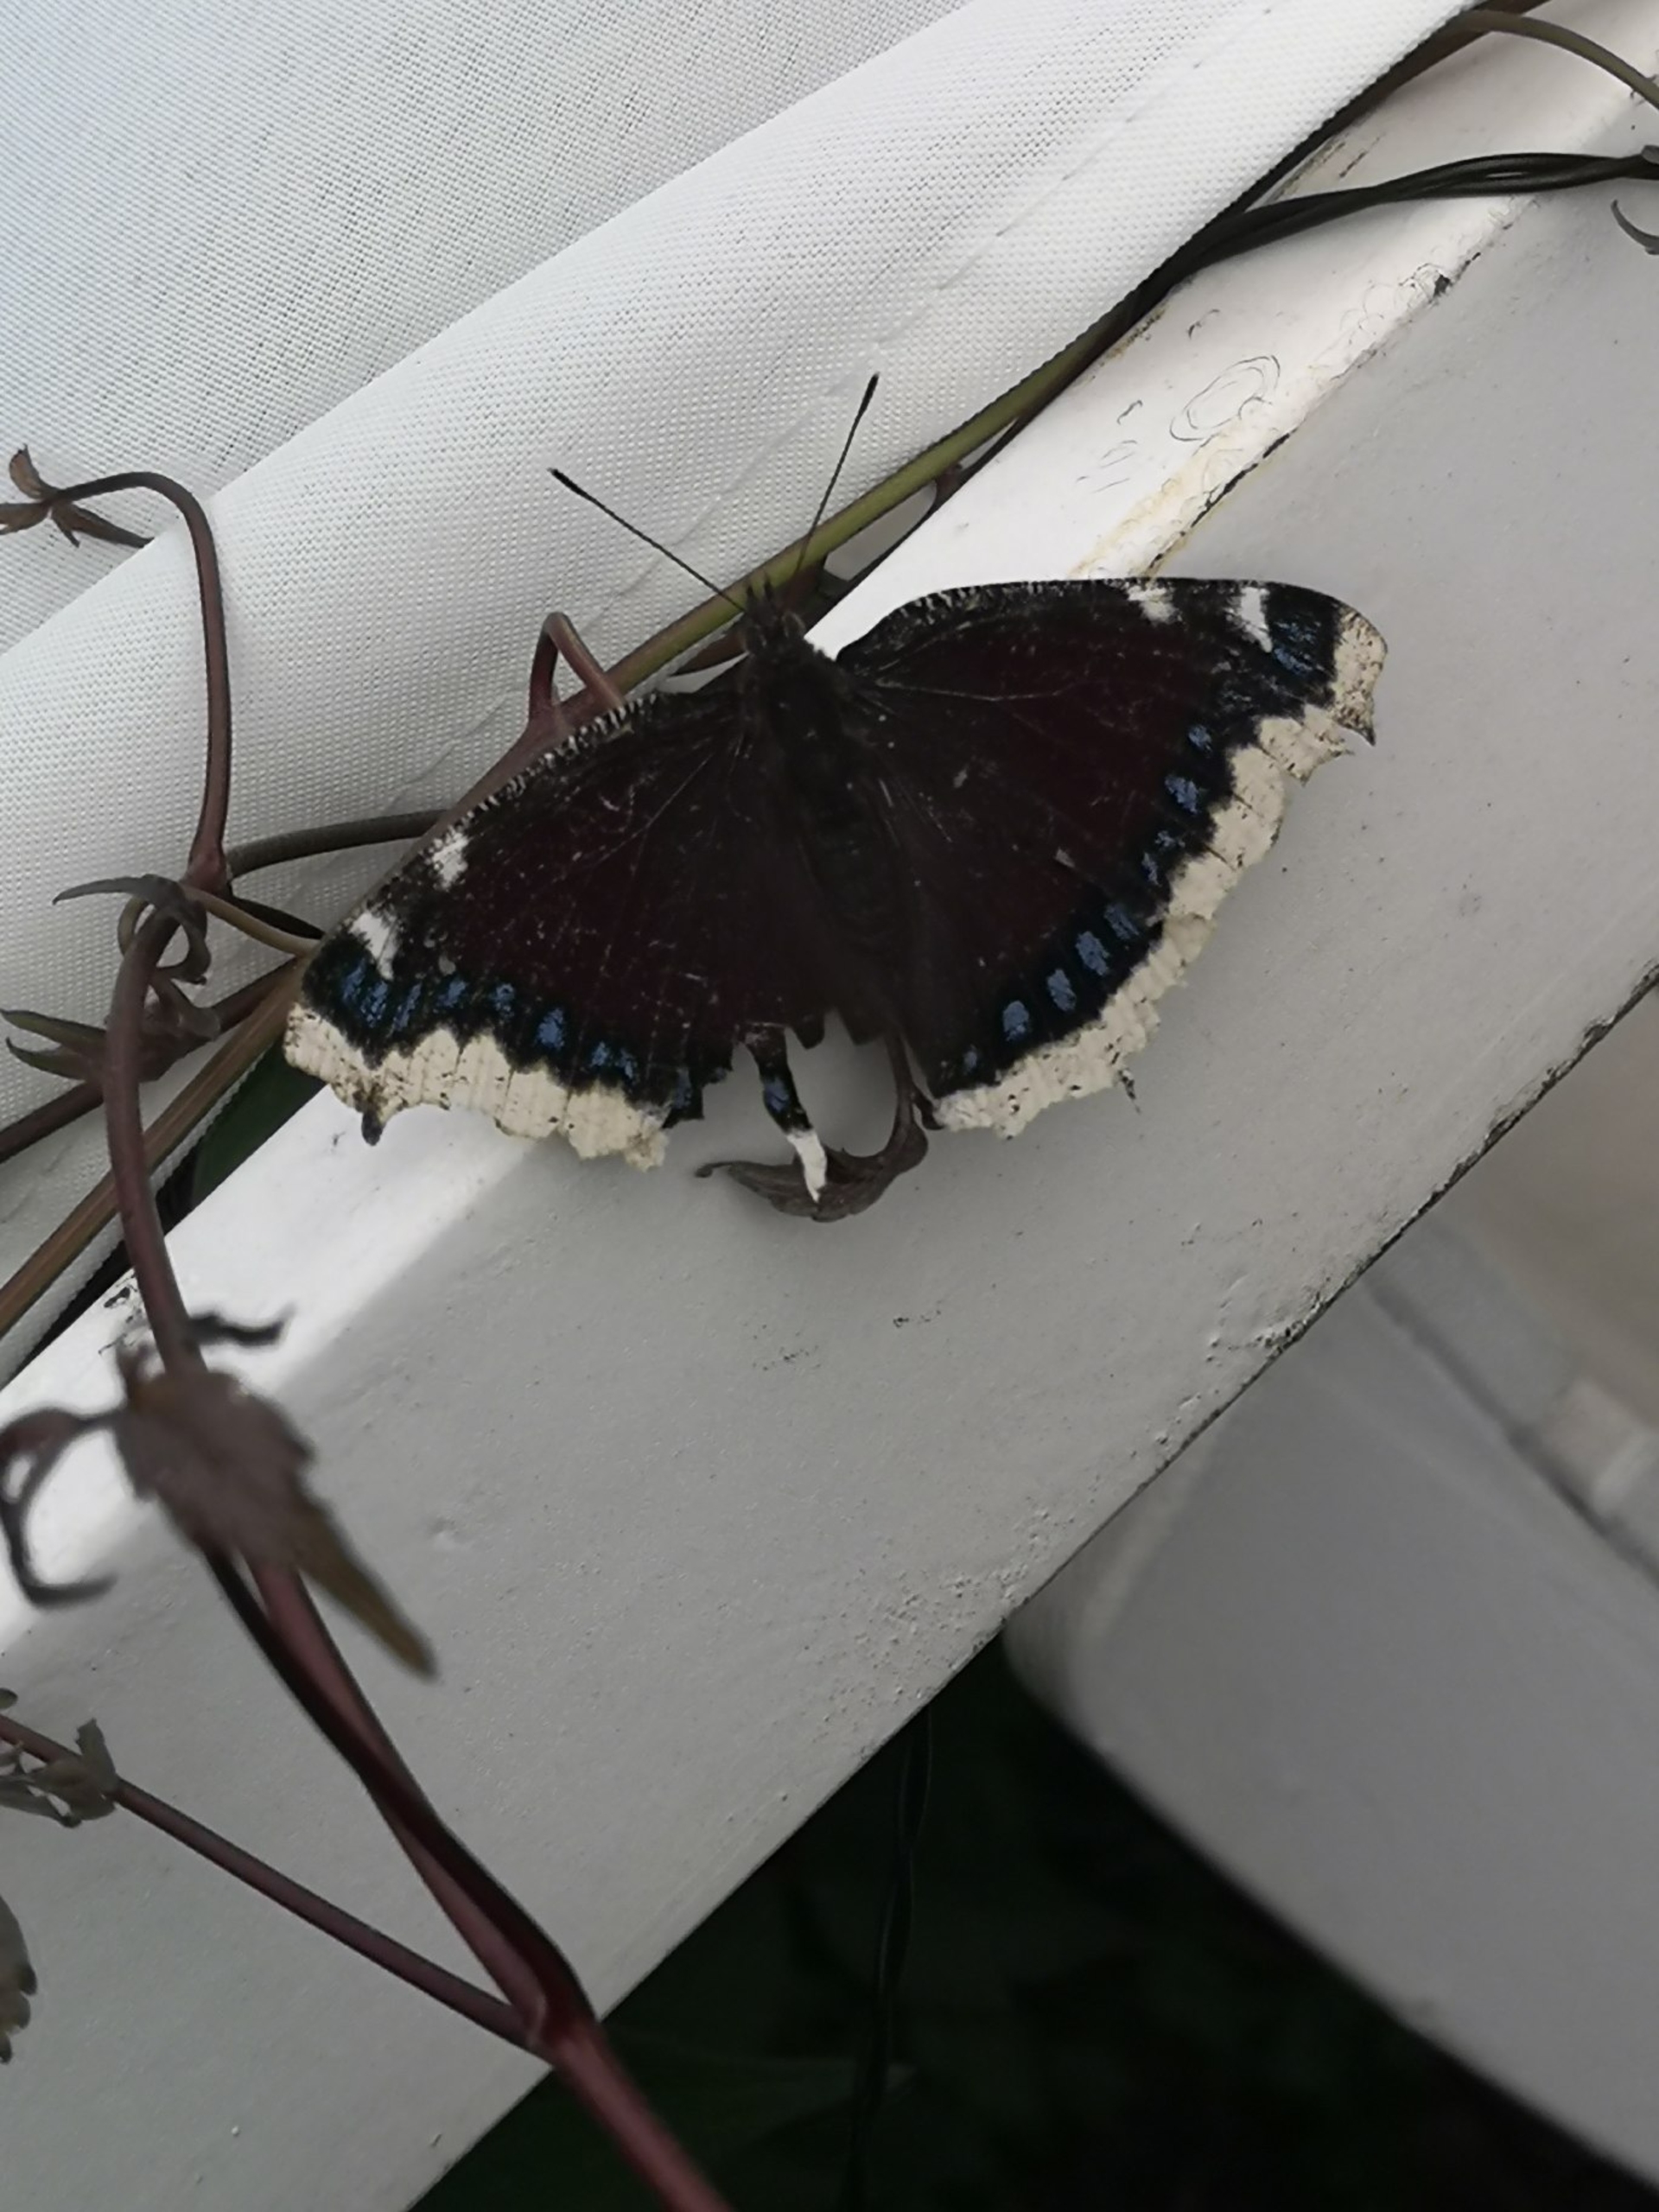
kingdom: Animalia
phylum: Arthropoda
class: Insecta
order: Lepidoptera
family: Nymphalidae
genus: Nymphalis
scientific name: Nymphalis antiopa
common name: Sørgekåbe
